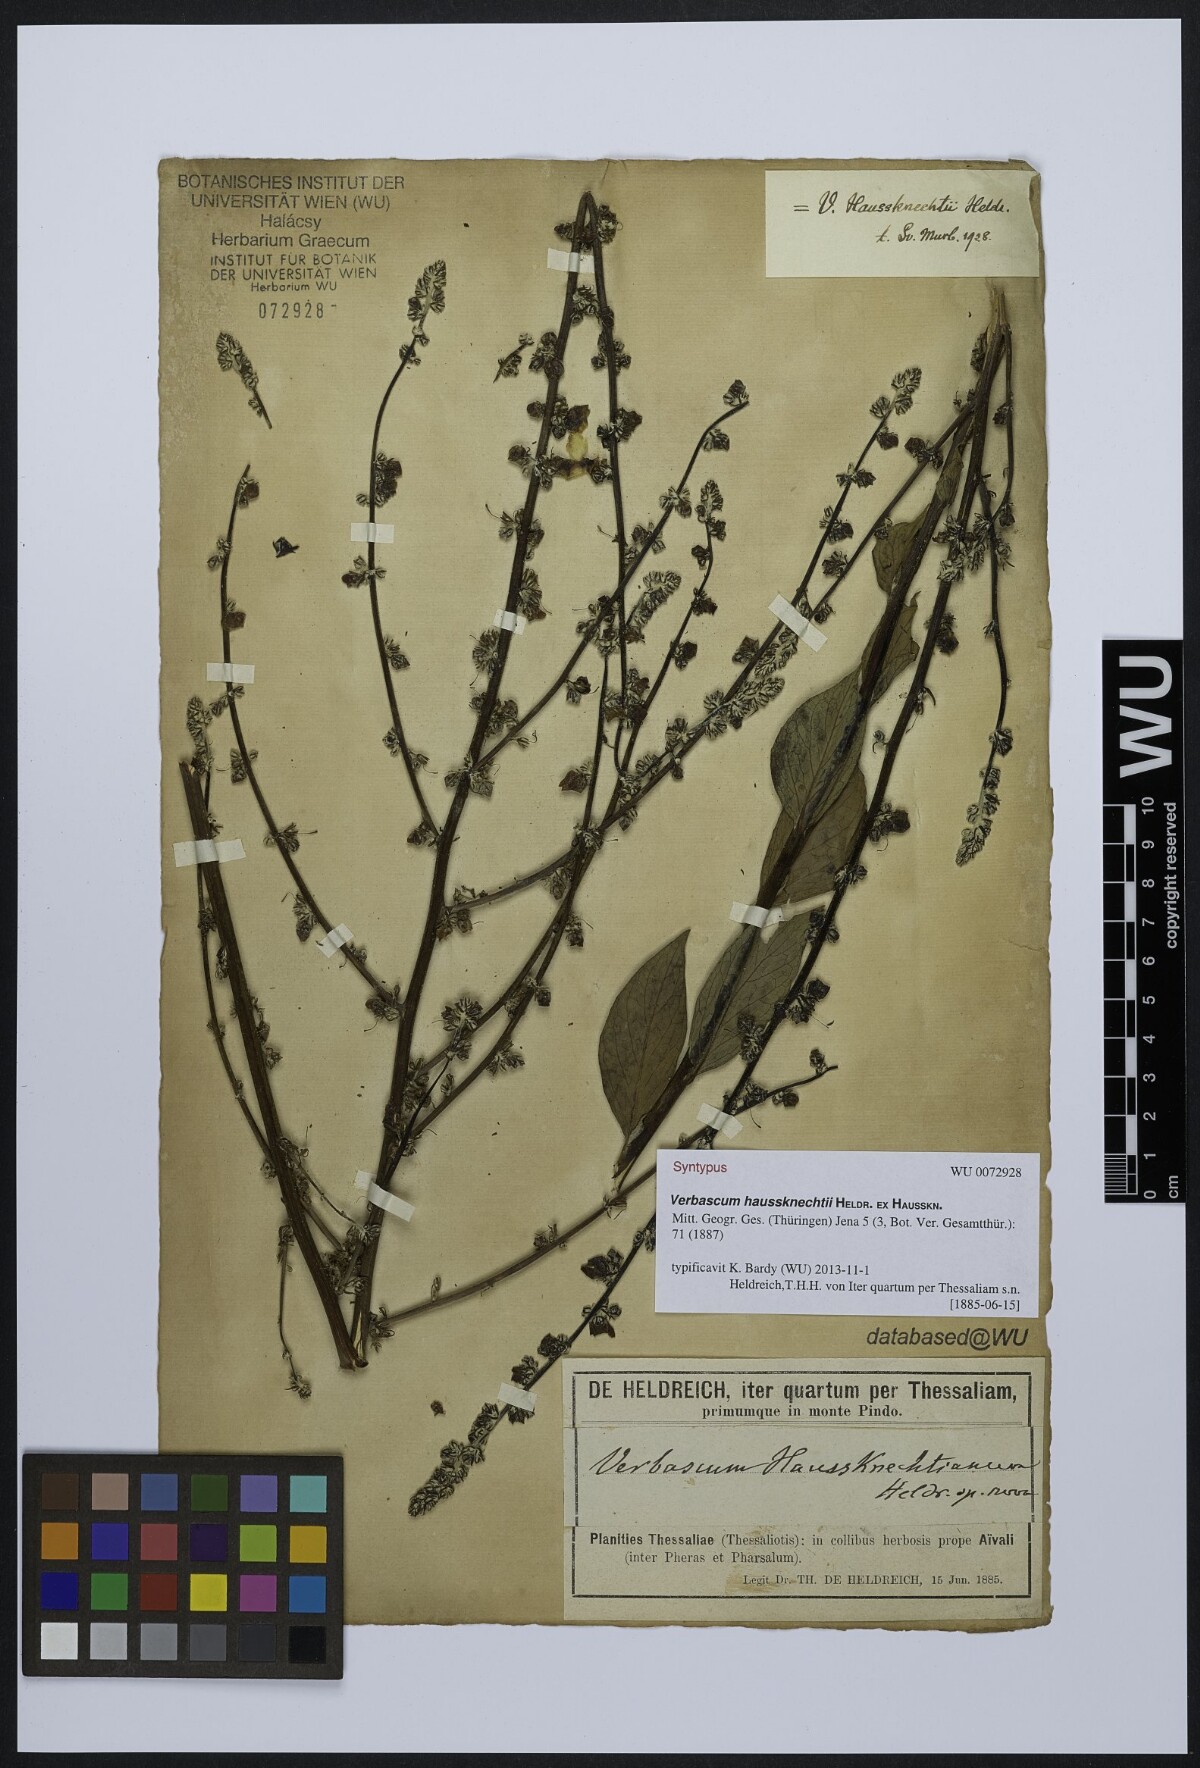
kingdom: Plantae
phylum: Tracheophyta
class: Magnoliopsida
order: Lamiales
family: Scrophulariaceae
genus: Verbascum
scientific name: Verbascum haussknechtii
